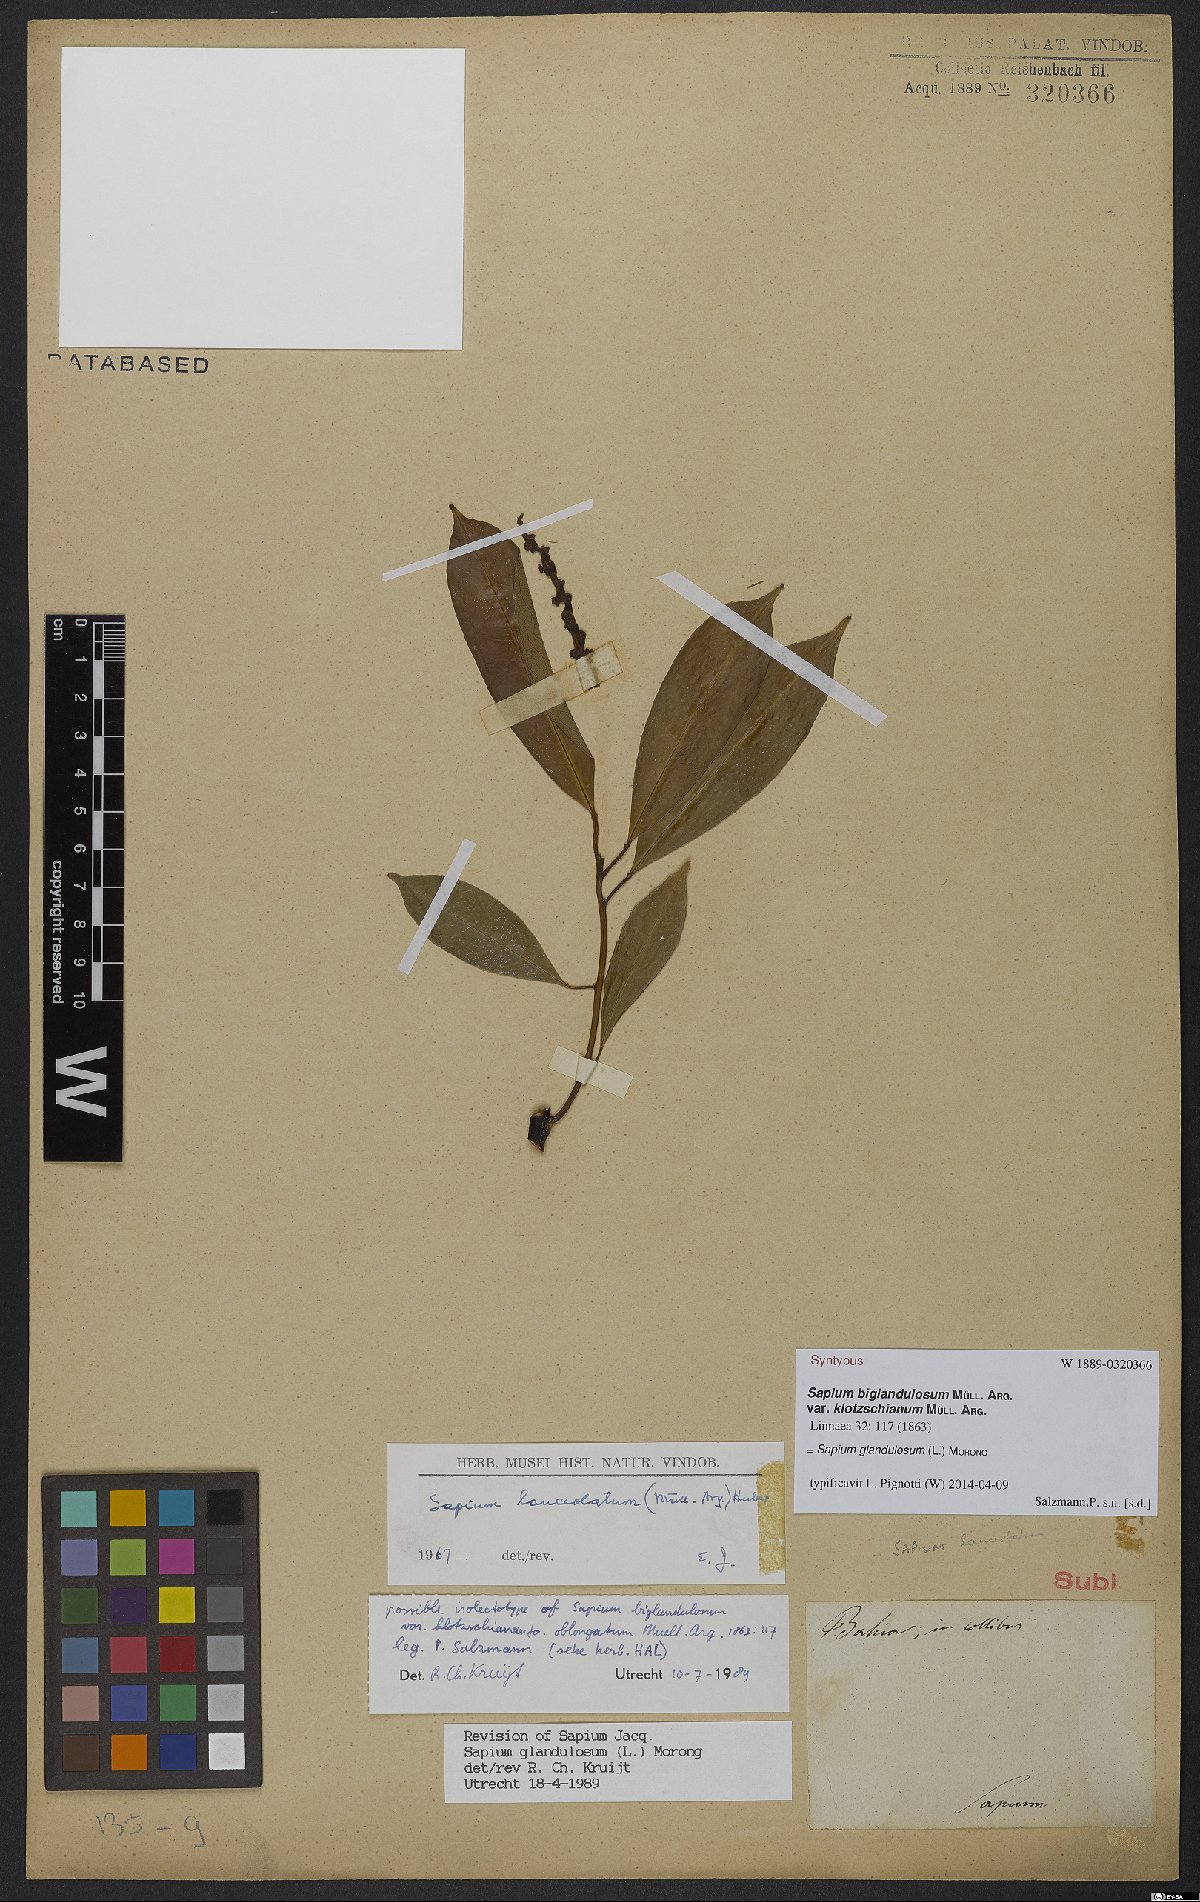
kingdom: Plantae
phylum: Tracheophyta
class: Magnoliopsida
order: Malpighiales
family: Euphorbiaceae
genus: Sapium
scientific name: Sapium glandulosum
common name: Milktree
